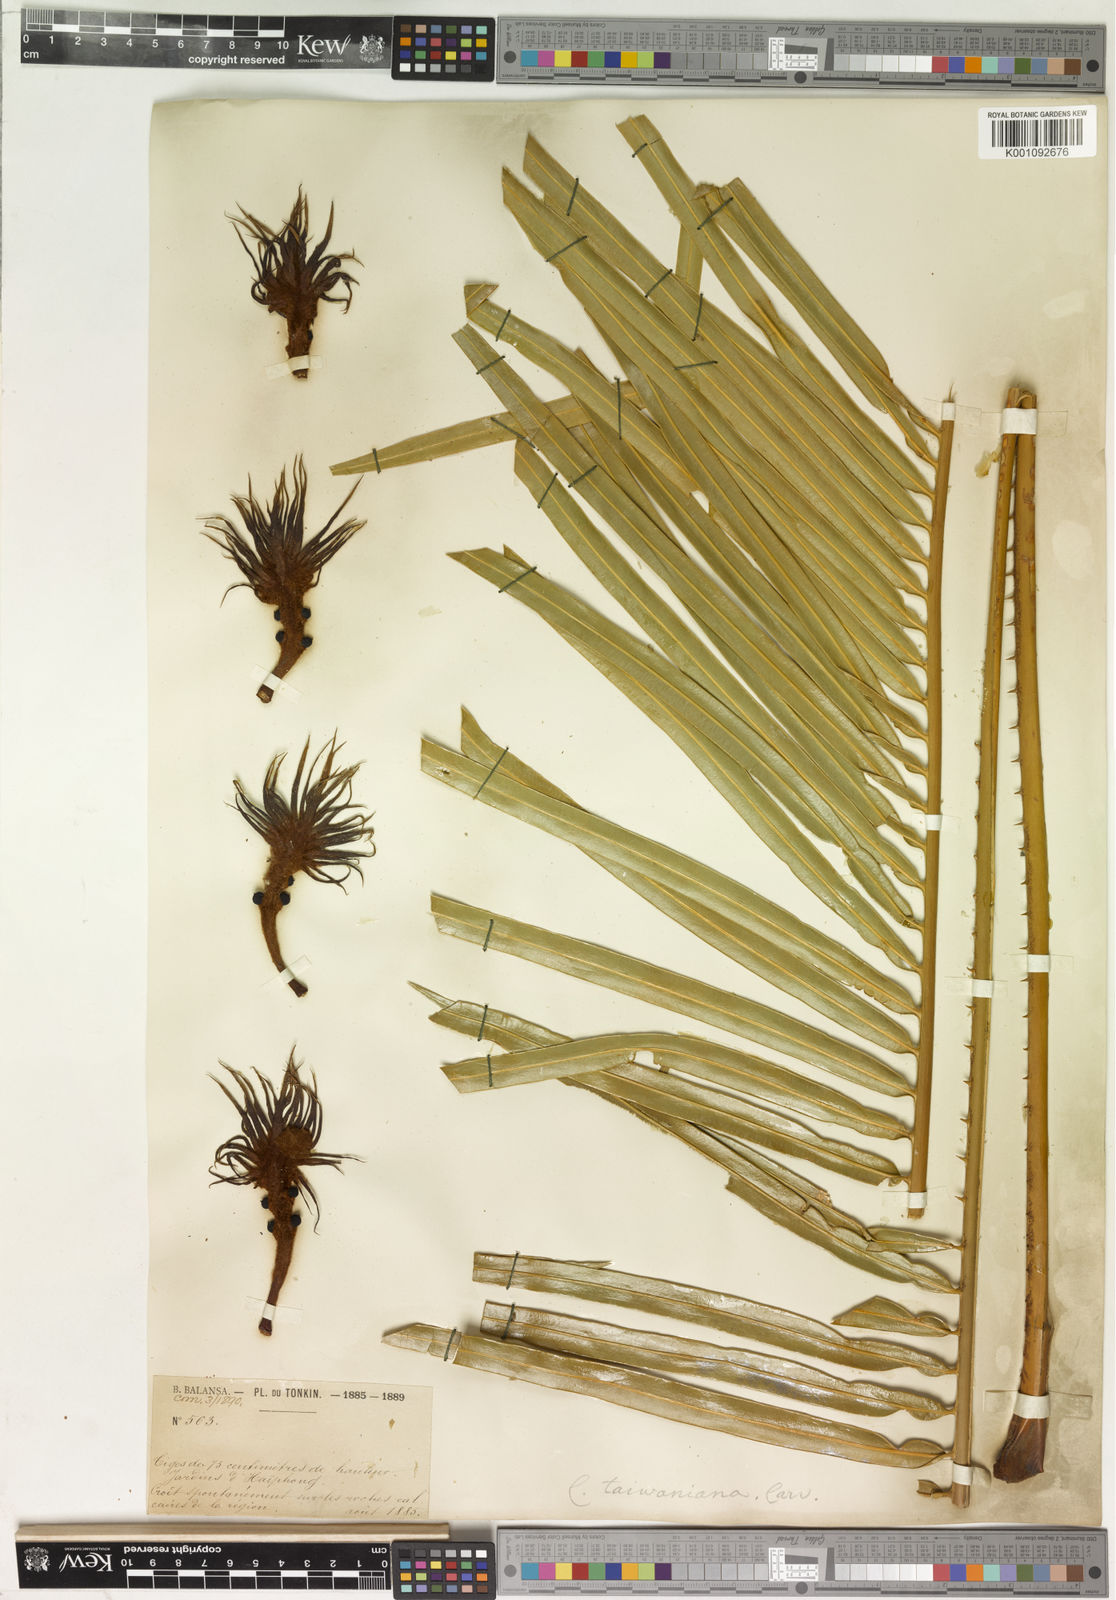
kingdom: Plantae
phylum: Tracheophyta
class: Cycadopsida
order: Cycadales
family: Cycadaceae
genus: Cycas
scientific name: Cycas taiwaniana
